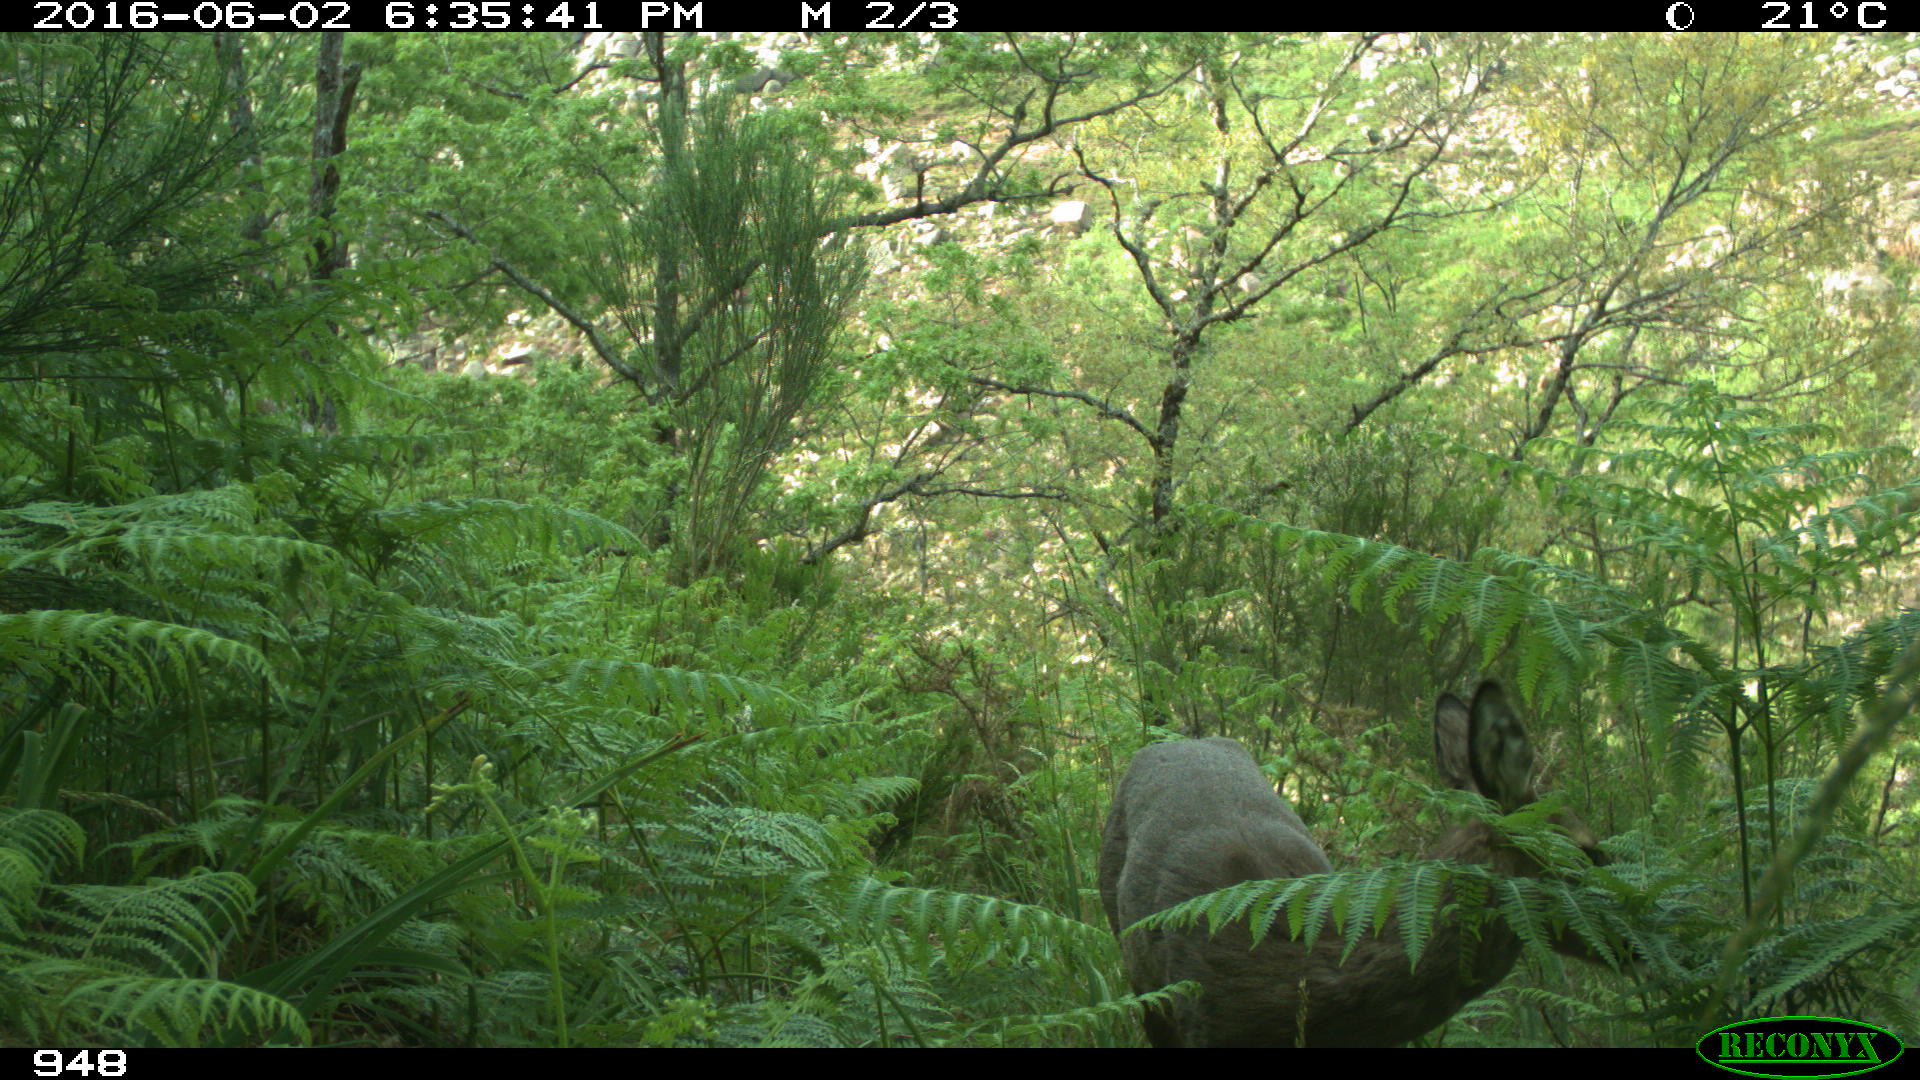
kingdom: Animalia
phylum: Chordata
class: Mammalia
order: Artiodactyla
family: Cervidae
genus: Capreolus
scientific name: Capreolus capreolus
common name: Western roe deer
